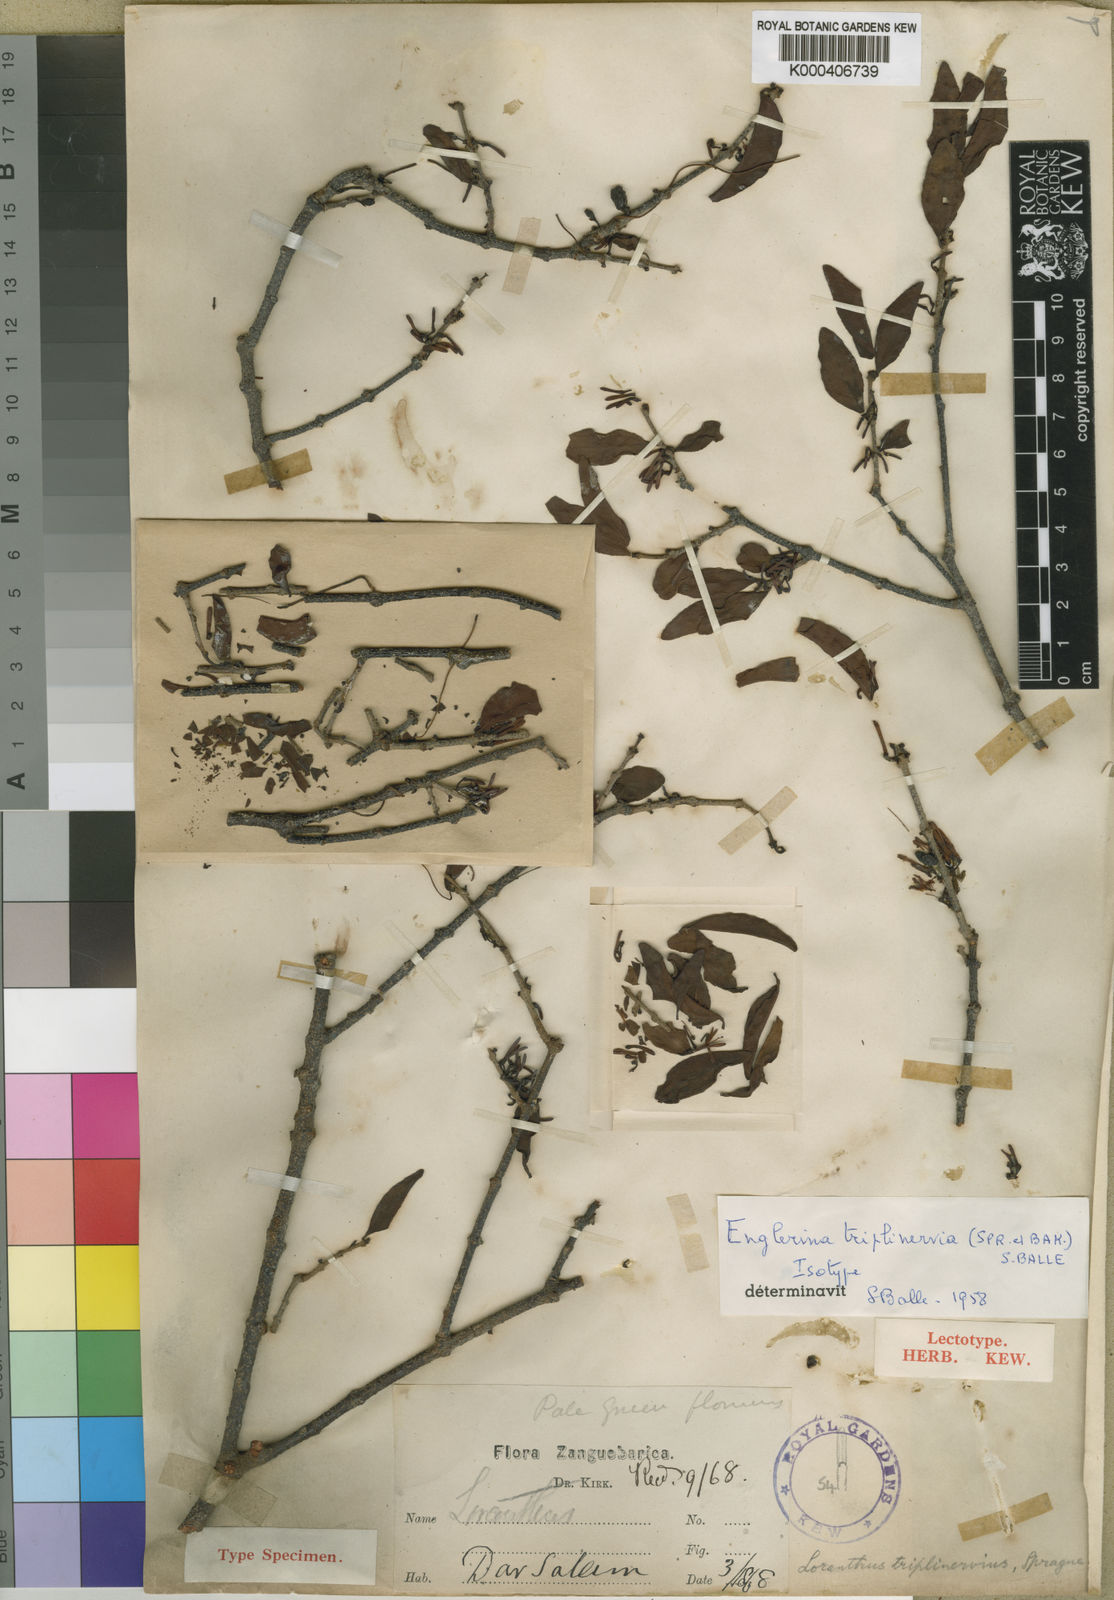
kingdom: Plantae
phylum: Tracheophyta
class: Magnoliopsida
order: Santalales
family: Loranthaceae
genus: Englerina
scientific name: Englerina
